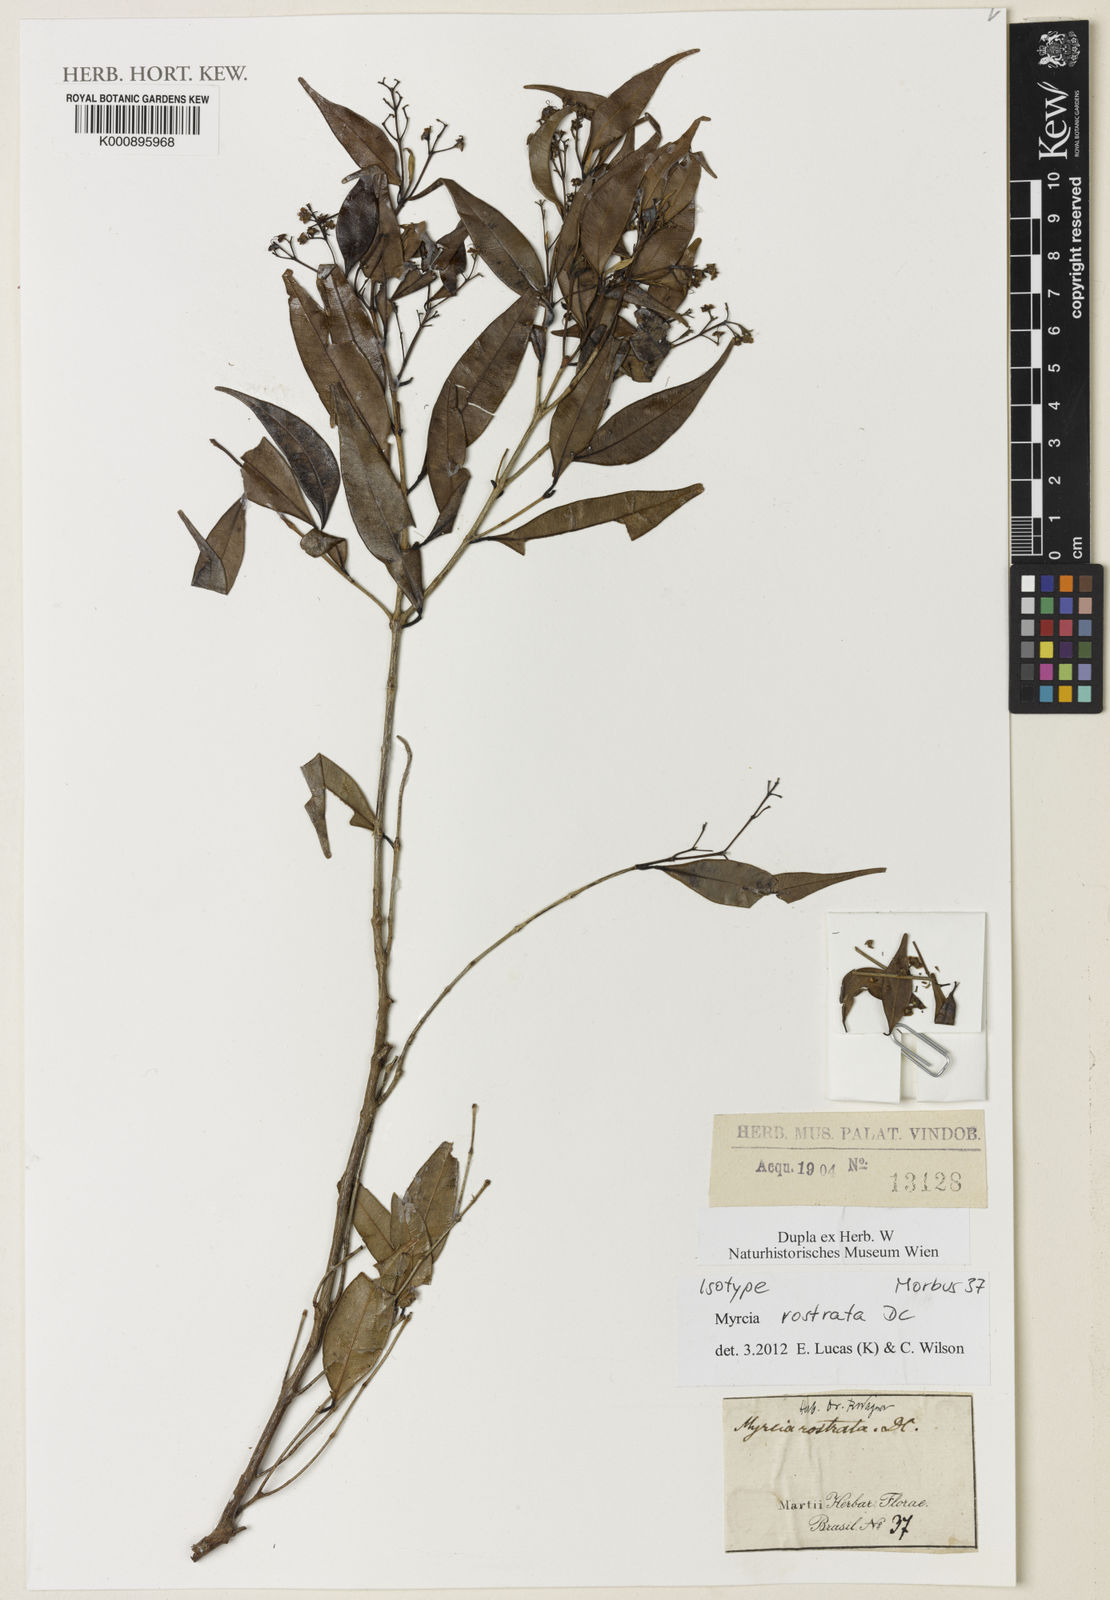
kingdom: Plantae
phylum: Tracheophyta
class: Magnoliopsida
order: Myrtales
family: Myrtaceae
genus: Myrcia
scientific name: Myrcia splendens
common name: Surinam cherry
